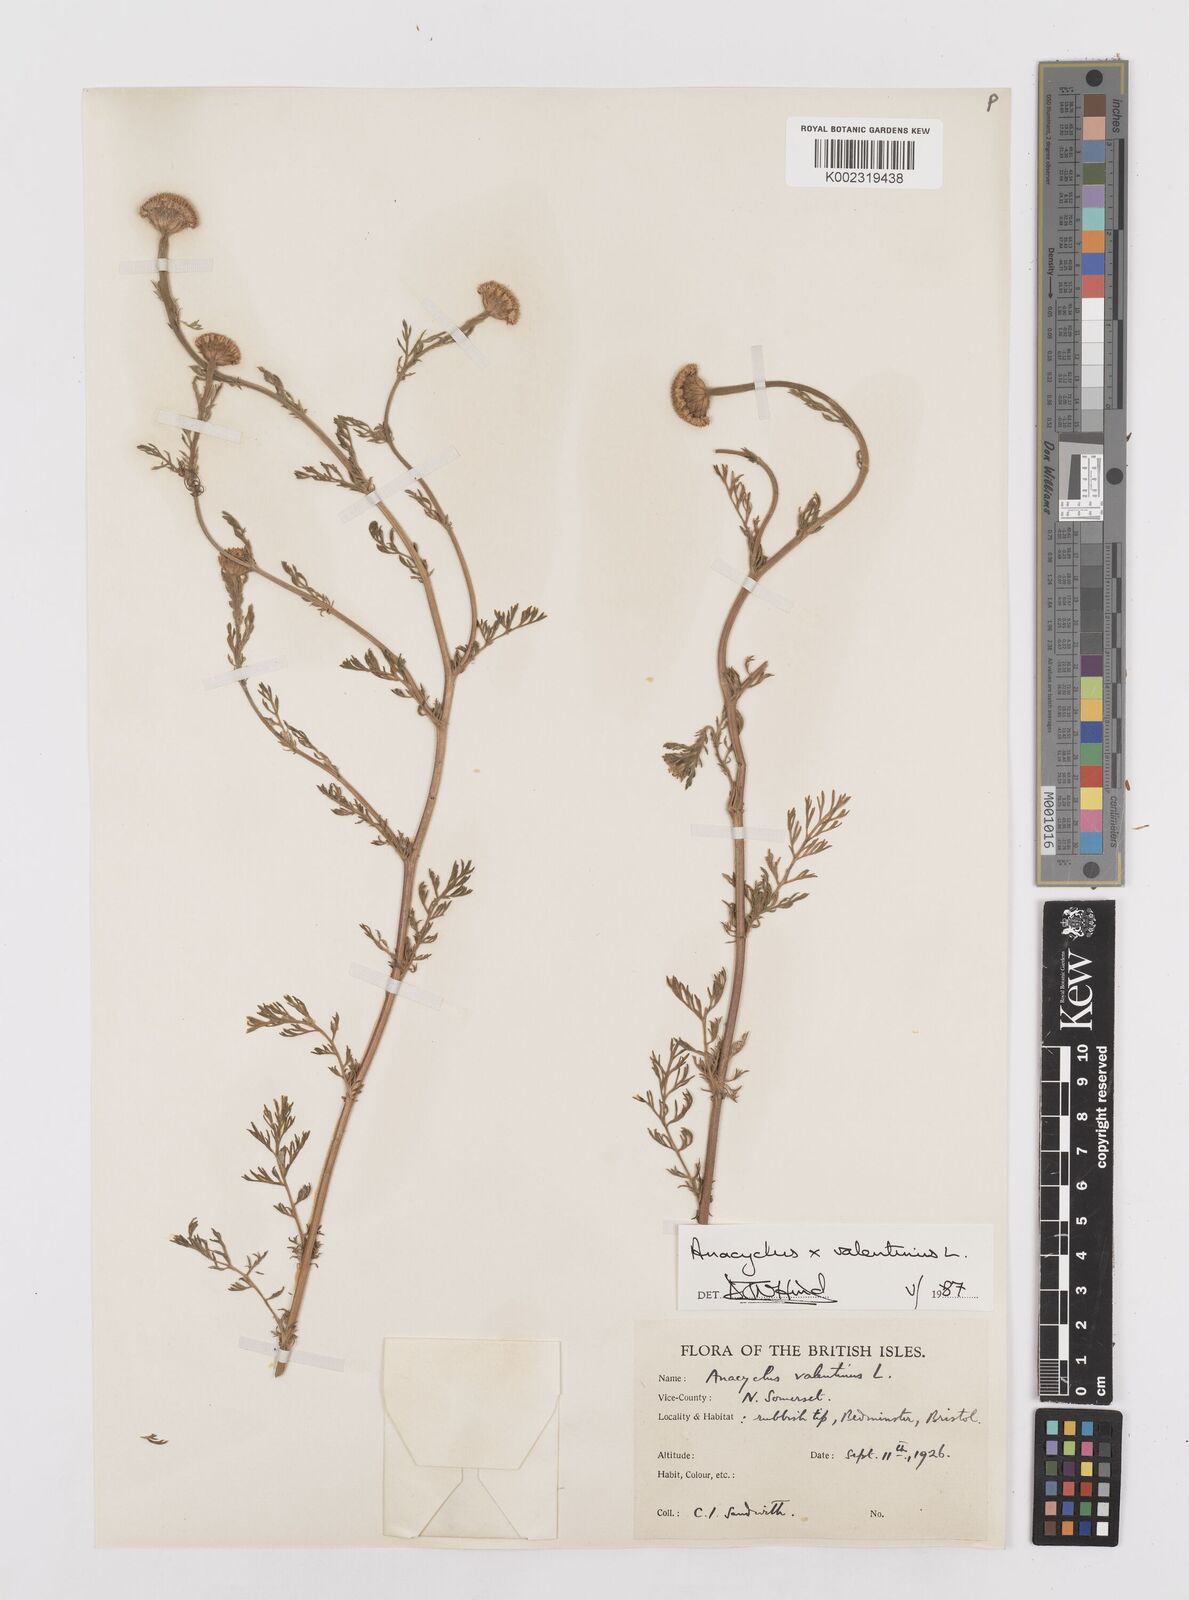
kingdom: Plantae
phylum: Tracheophyta
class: Magnoliopsida
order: Asterales
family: Asteraceae
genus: Anacyclus
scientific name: Anacyclus valentinus
